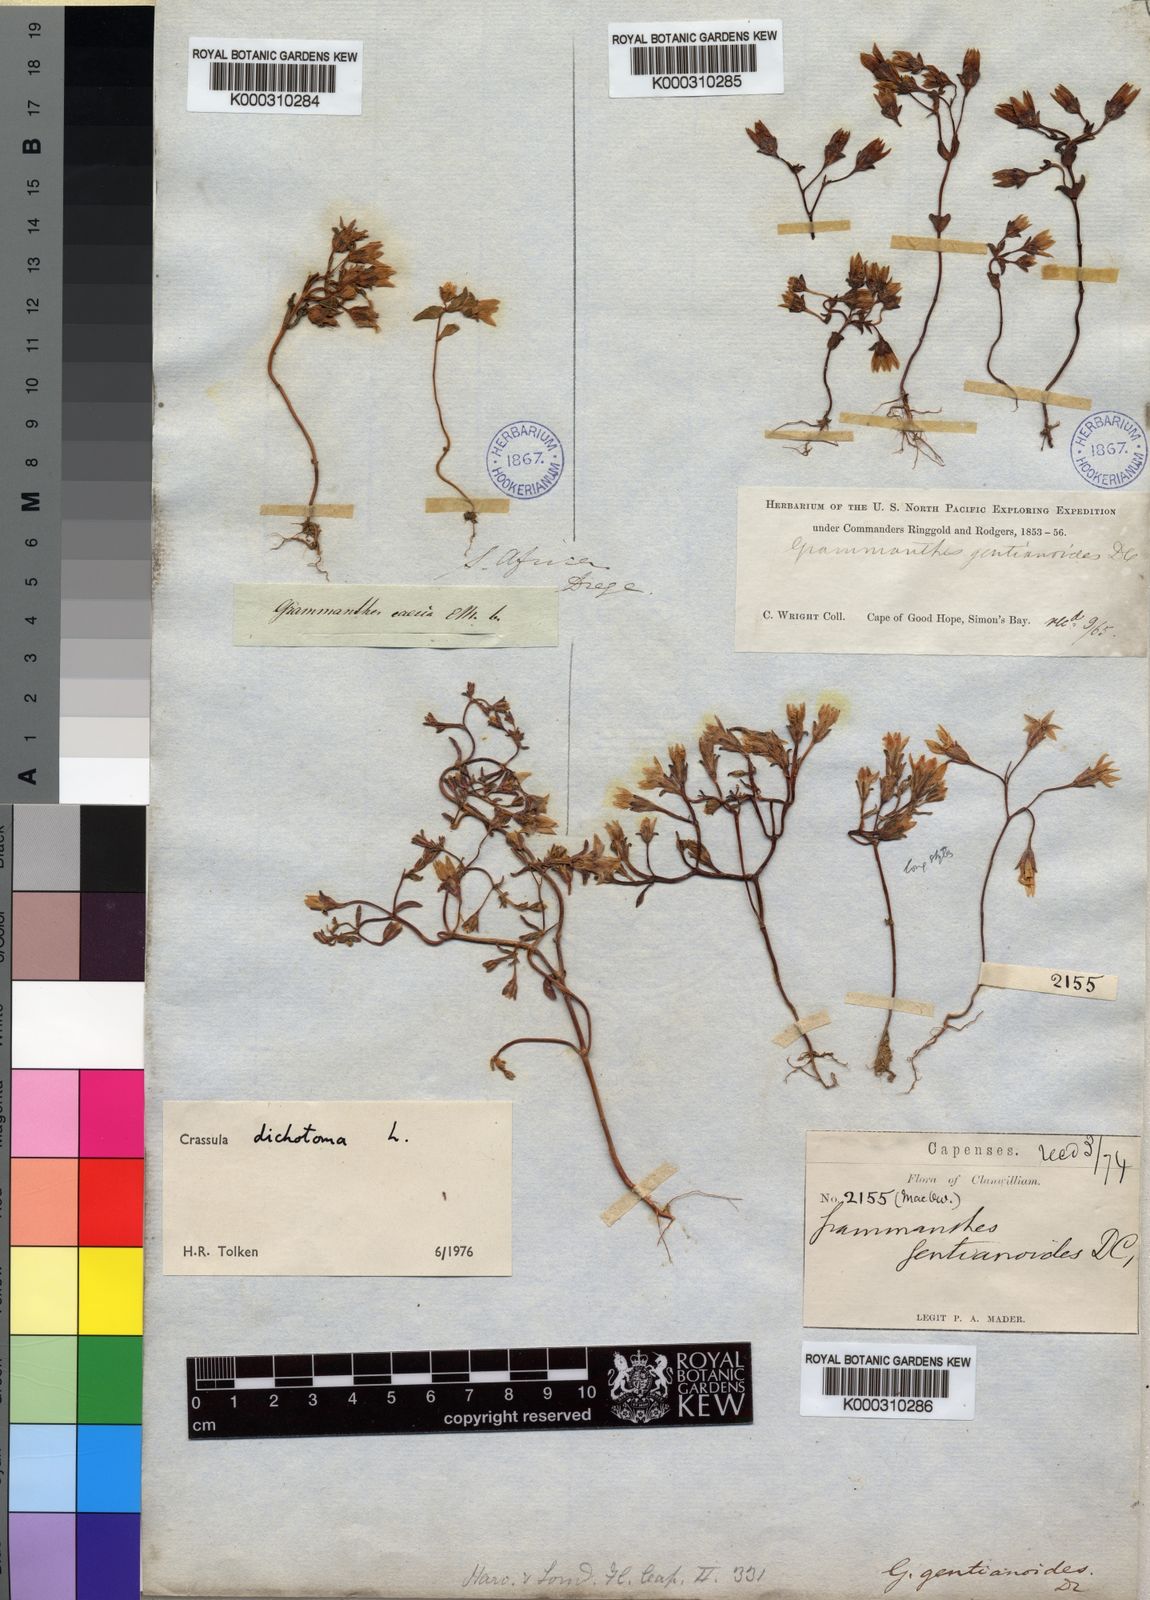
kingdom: Plantae
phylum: Tracheophyta
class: Magnoliopsida
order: Saxifragales
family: Crassulaceae
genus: Crassula
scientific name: Crassula dichotoma
